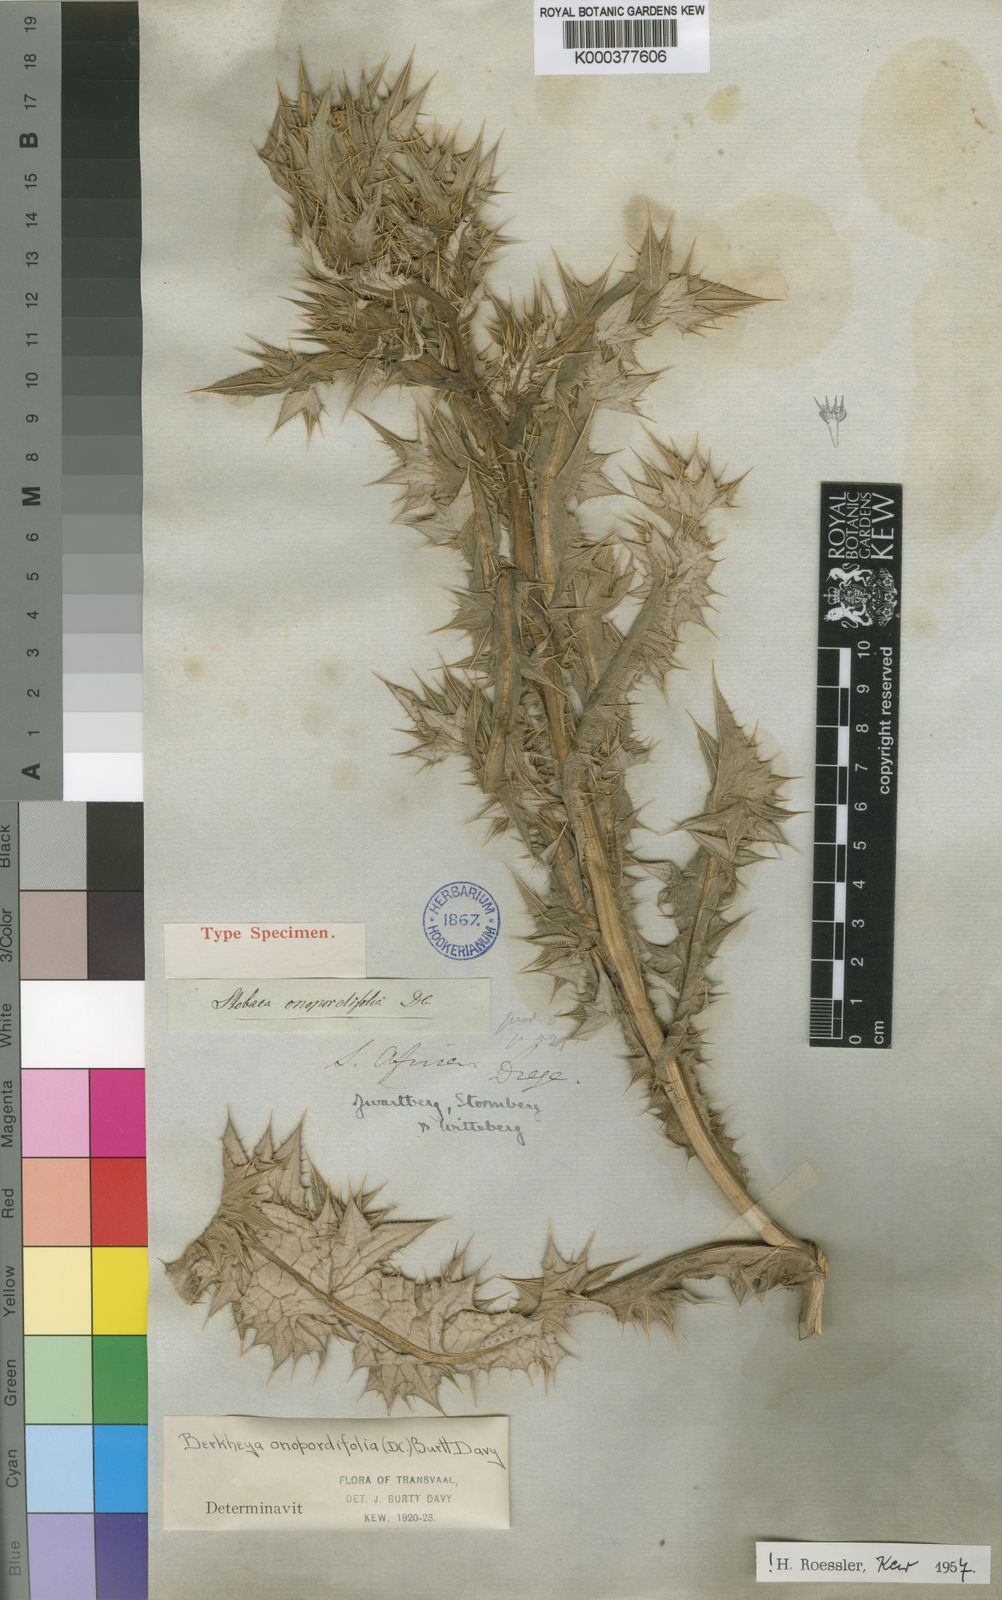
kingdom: Plantae
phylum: Tracheophyta
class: Magnoliopsida
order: Asterales
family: Asteraceae
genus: Berkheya
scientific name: Berkheya onopordifolia
